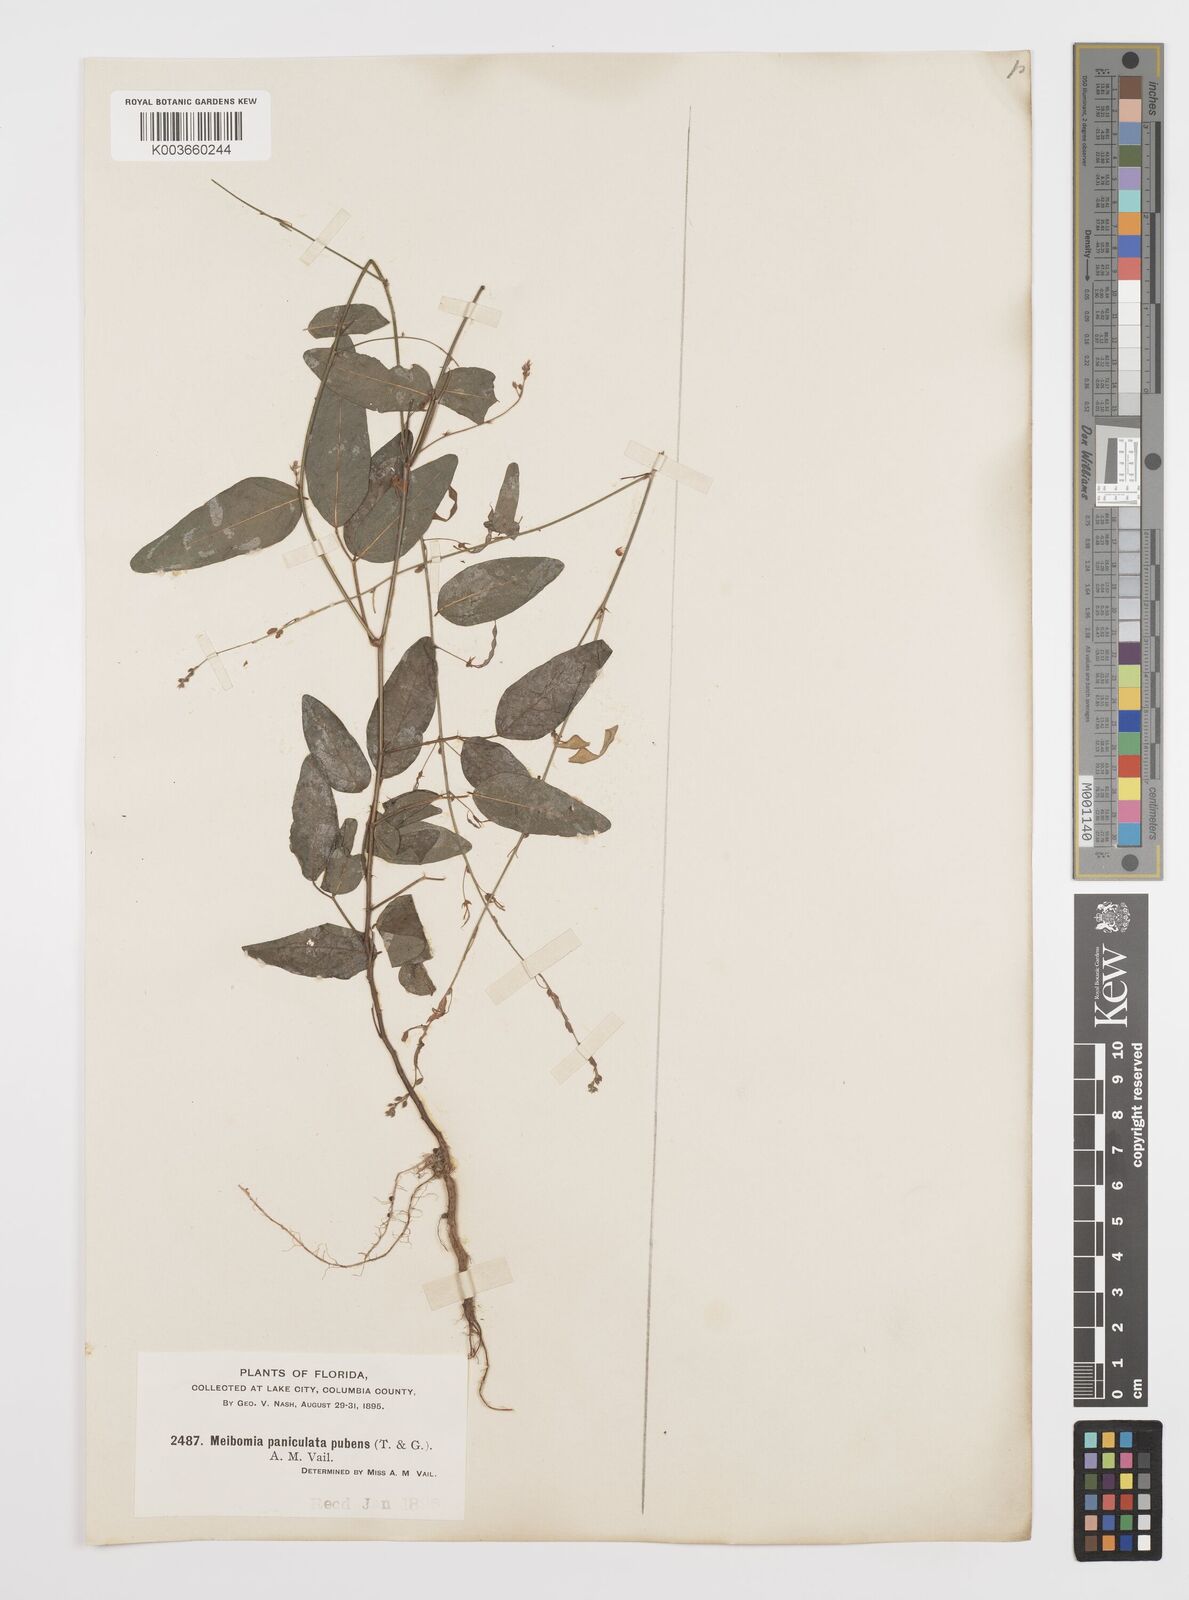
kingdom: Plantae
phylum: Tracheophyta
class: Magnoliopsida
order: Fabales
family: Fabaceae
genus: Desmodium
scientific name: Desmodium paniculatum
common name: Panicled tick-clover
